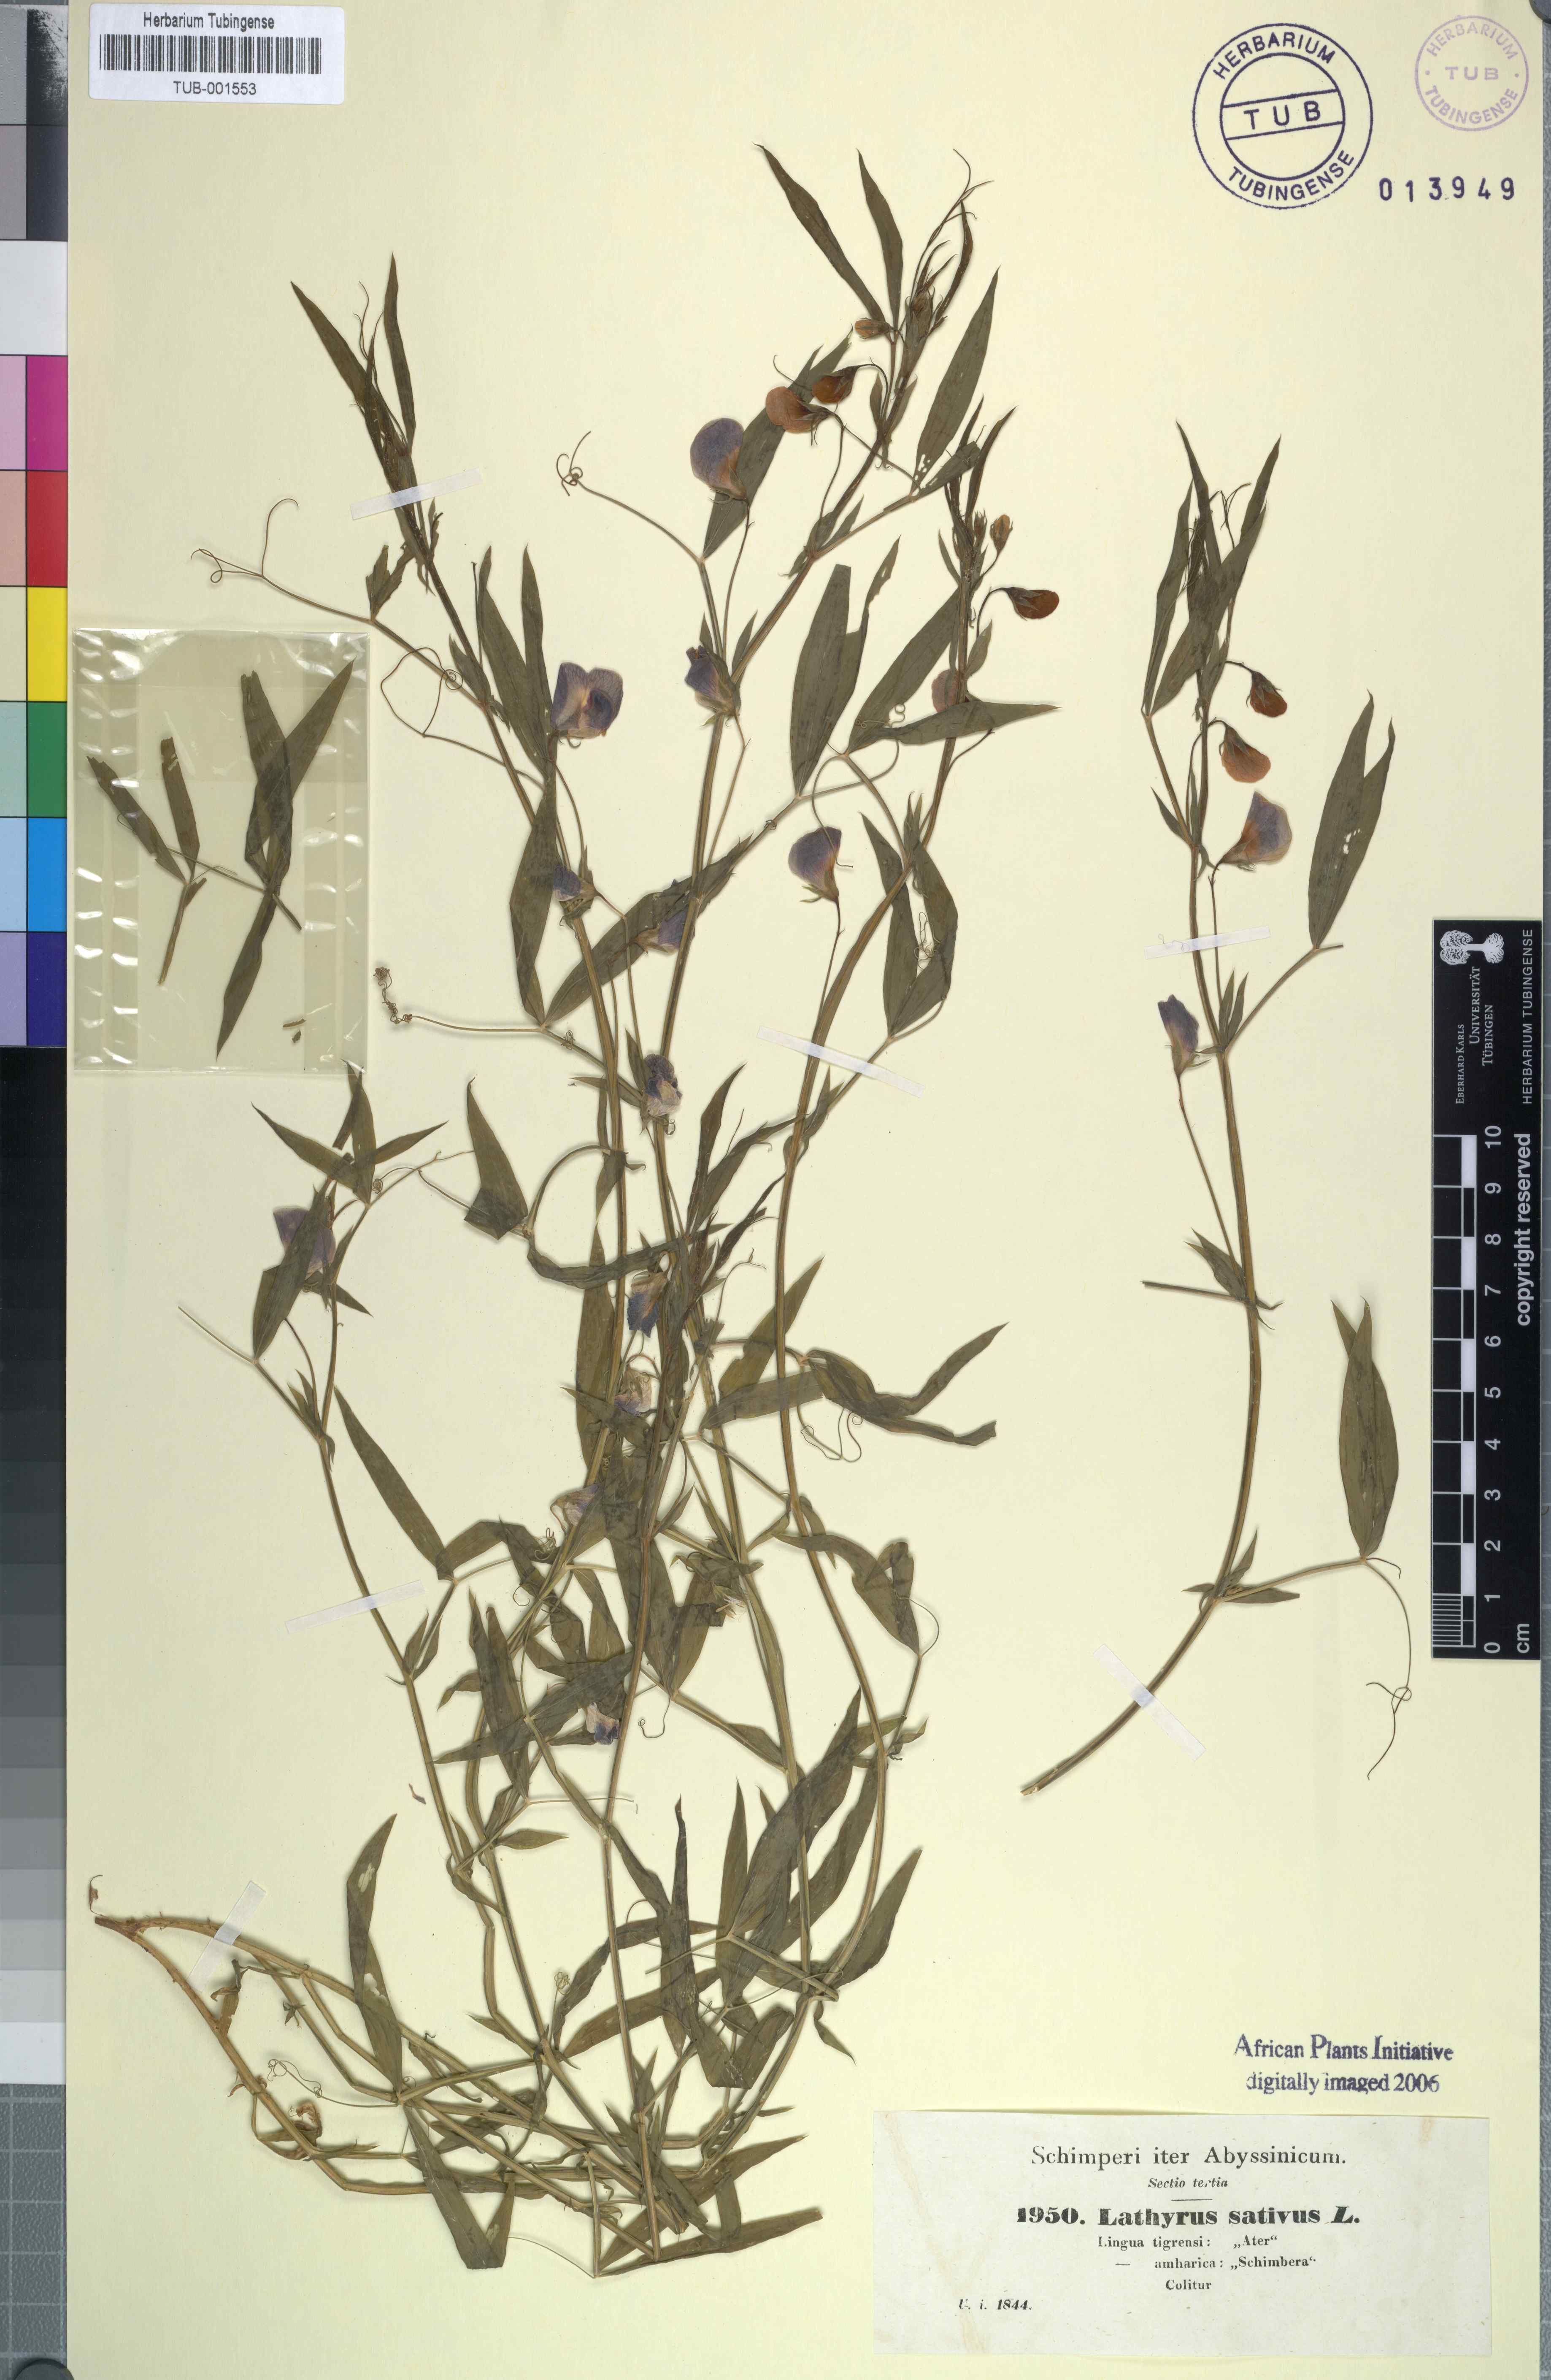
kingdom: Plantae
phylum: Tracheophyta
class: Magnoliopsida
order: Fabales
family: Fabaceae
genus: Lathyrus
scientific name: Lathyrus sativus
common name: Indian pea
